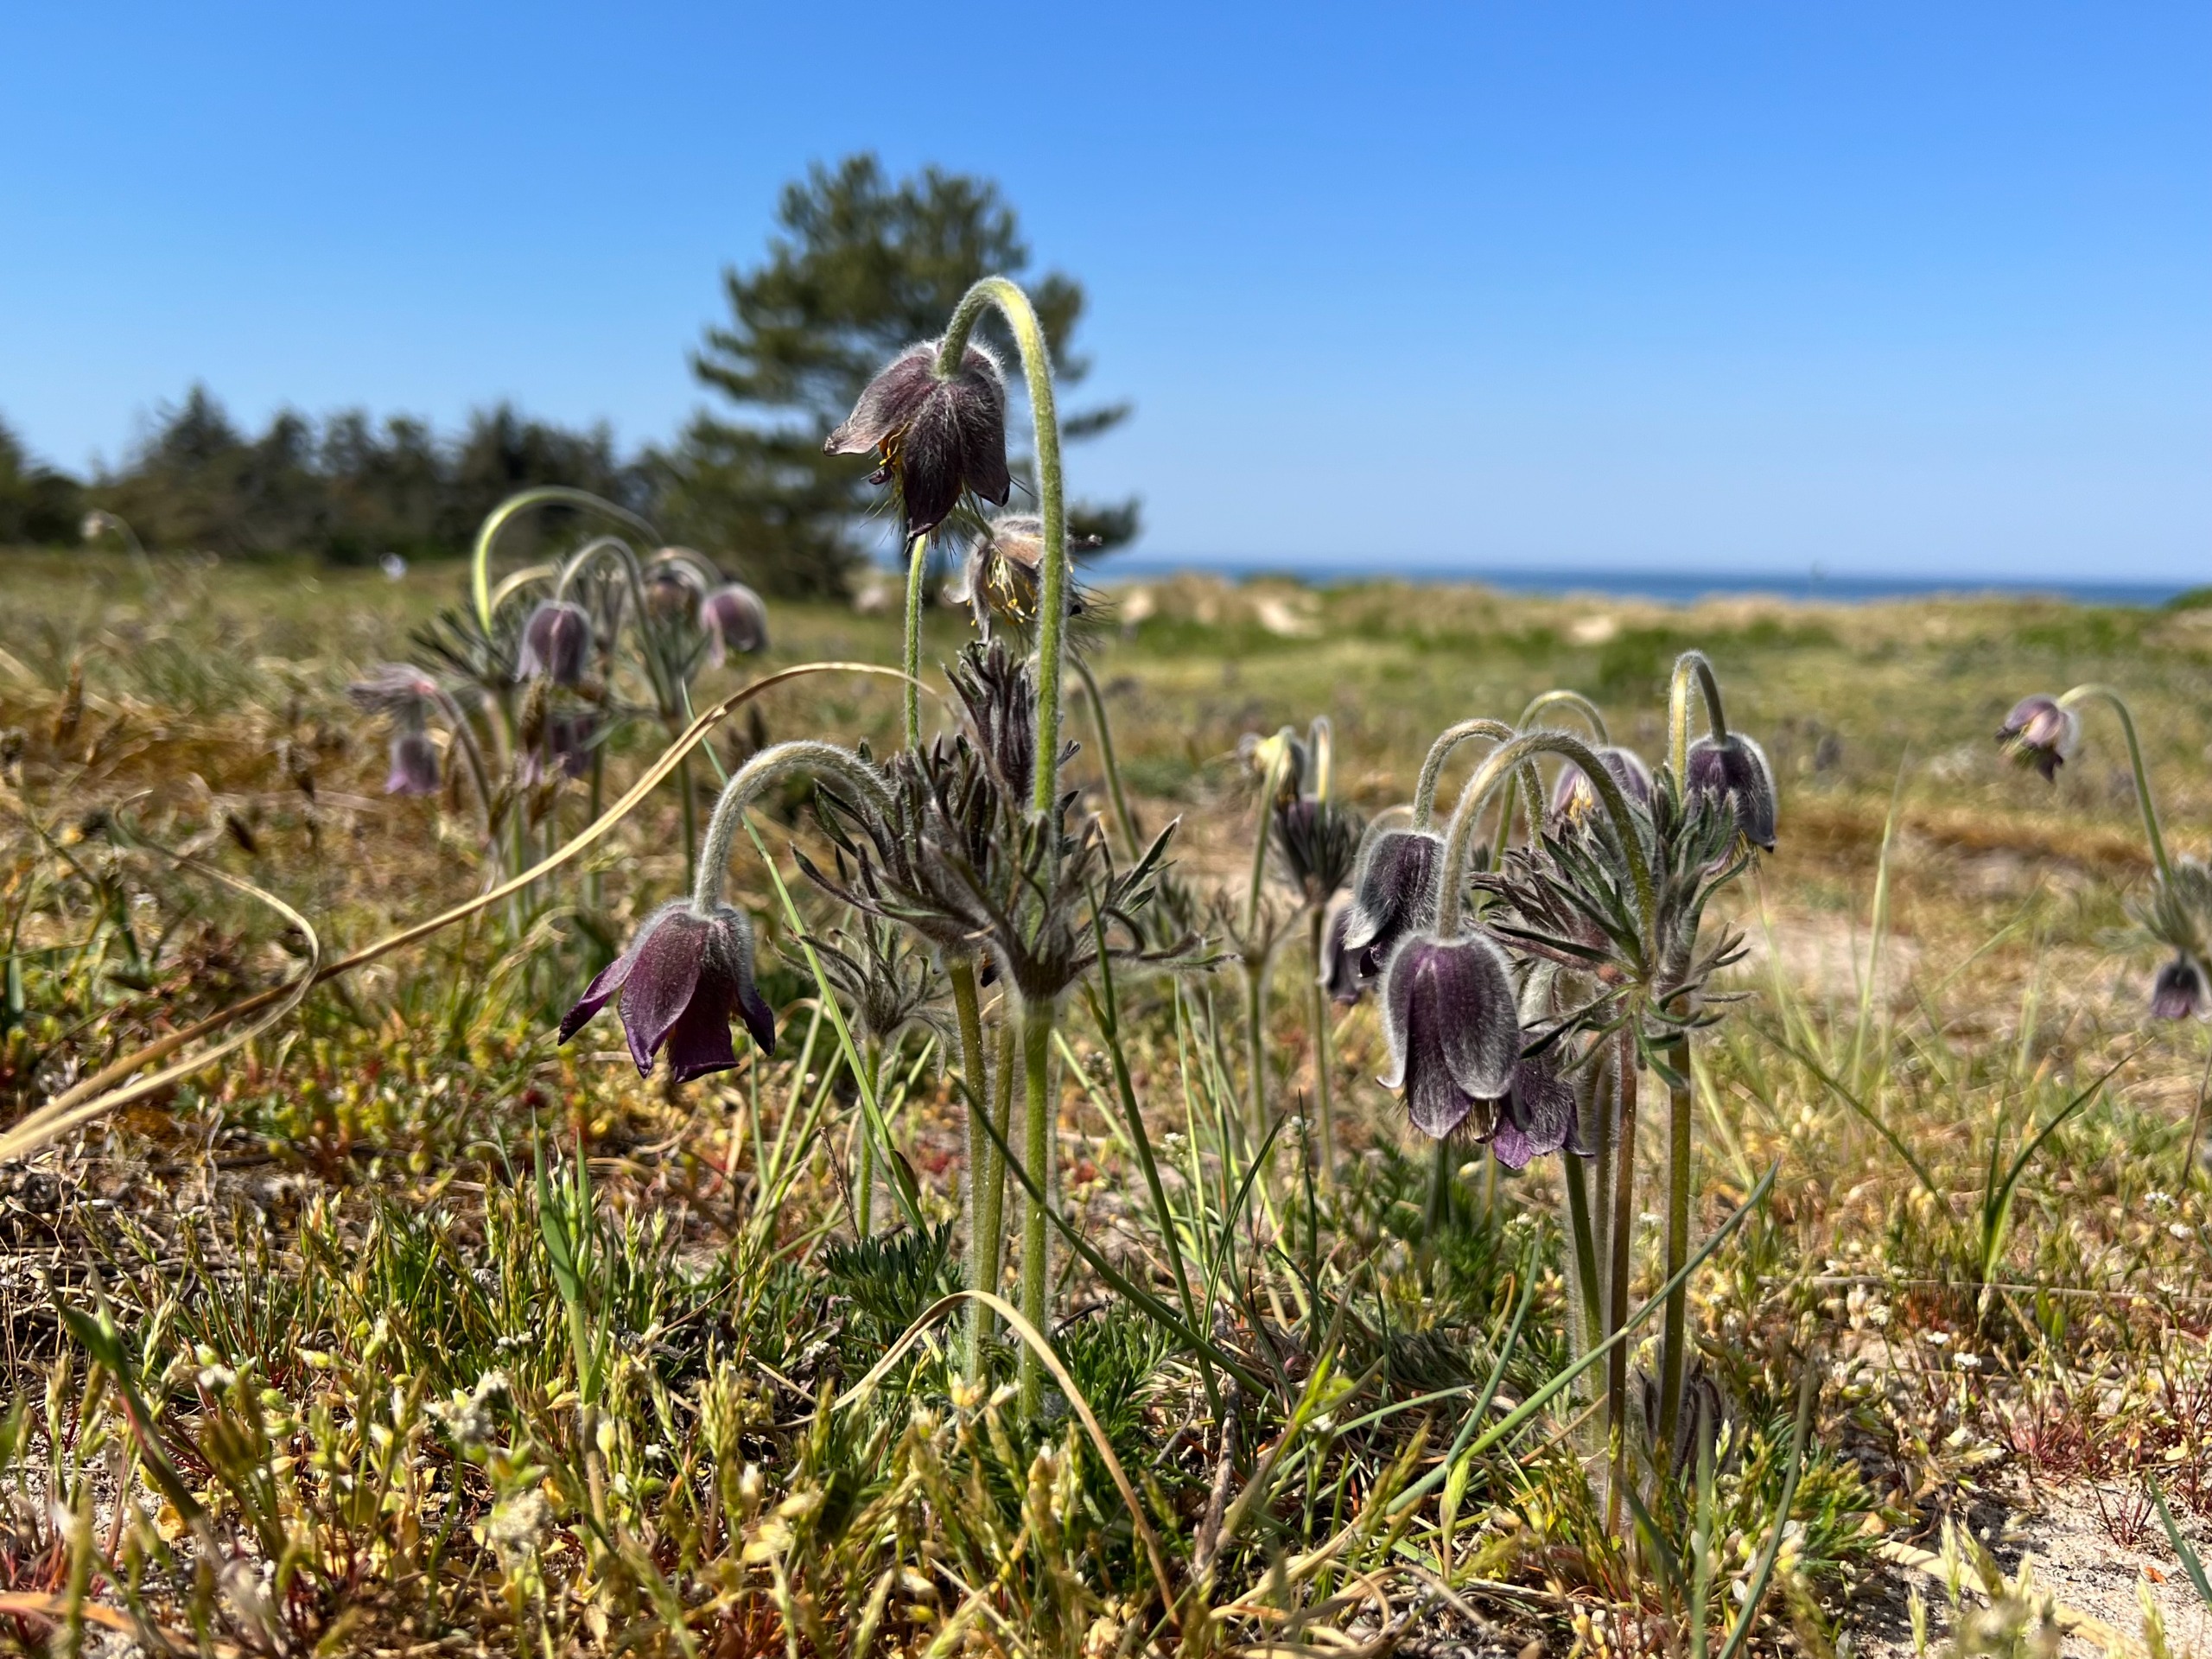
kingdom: Plantae
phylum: Tracheophyta
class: Magnoliopsida
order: Ranunculales
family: Ranunculaceae
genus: Pulsatilla
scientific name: Pulsatilla pratensis
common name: Nikkende kobjælde
